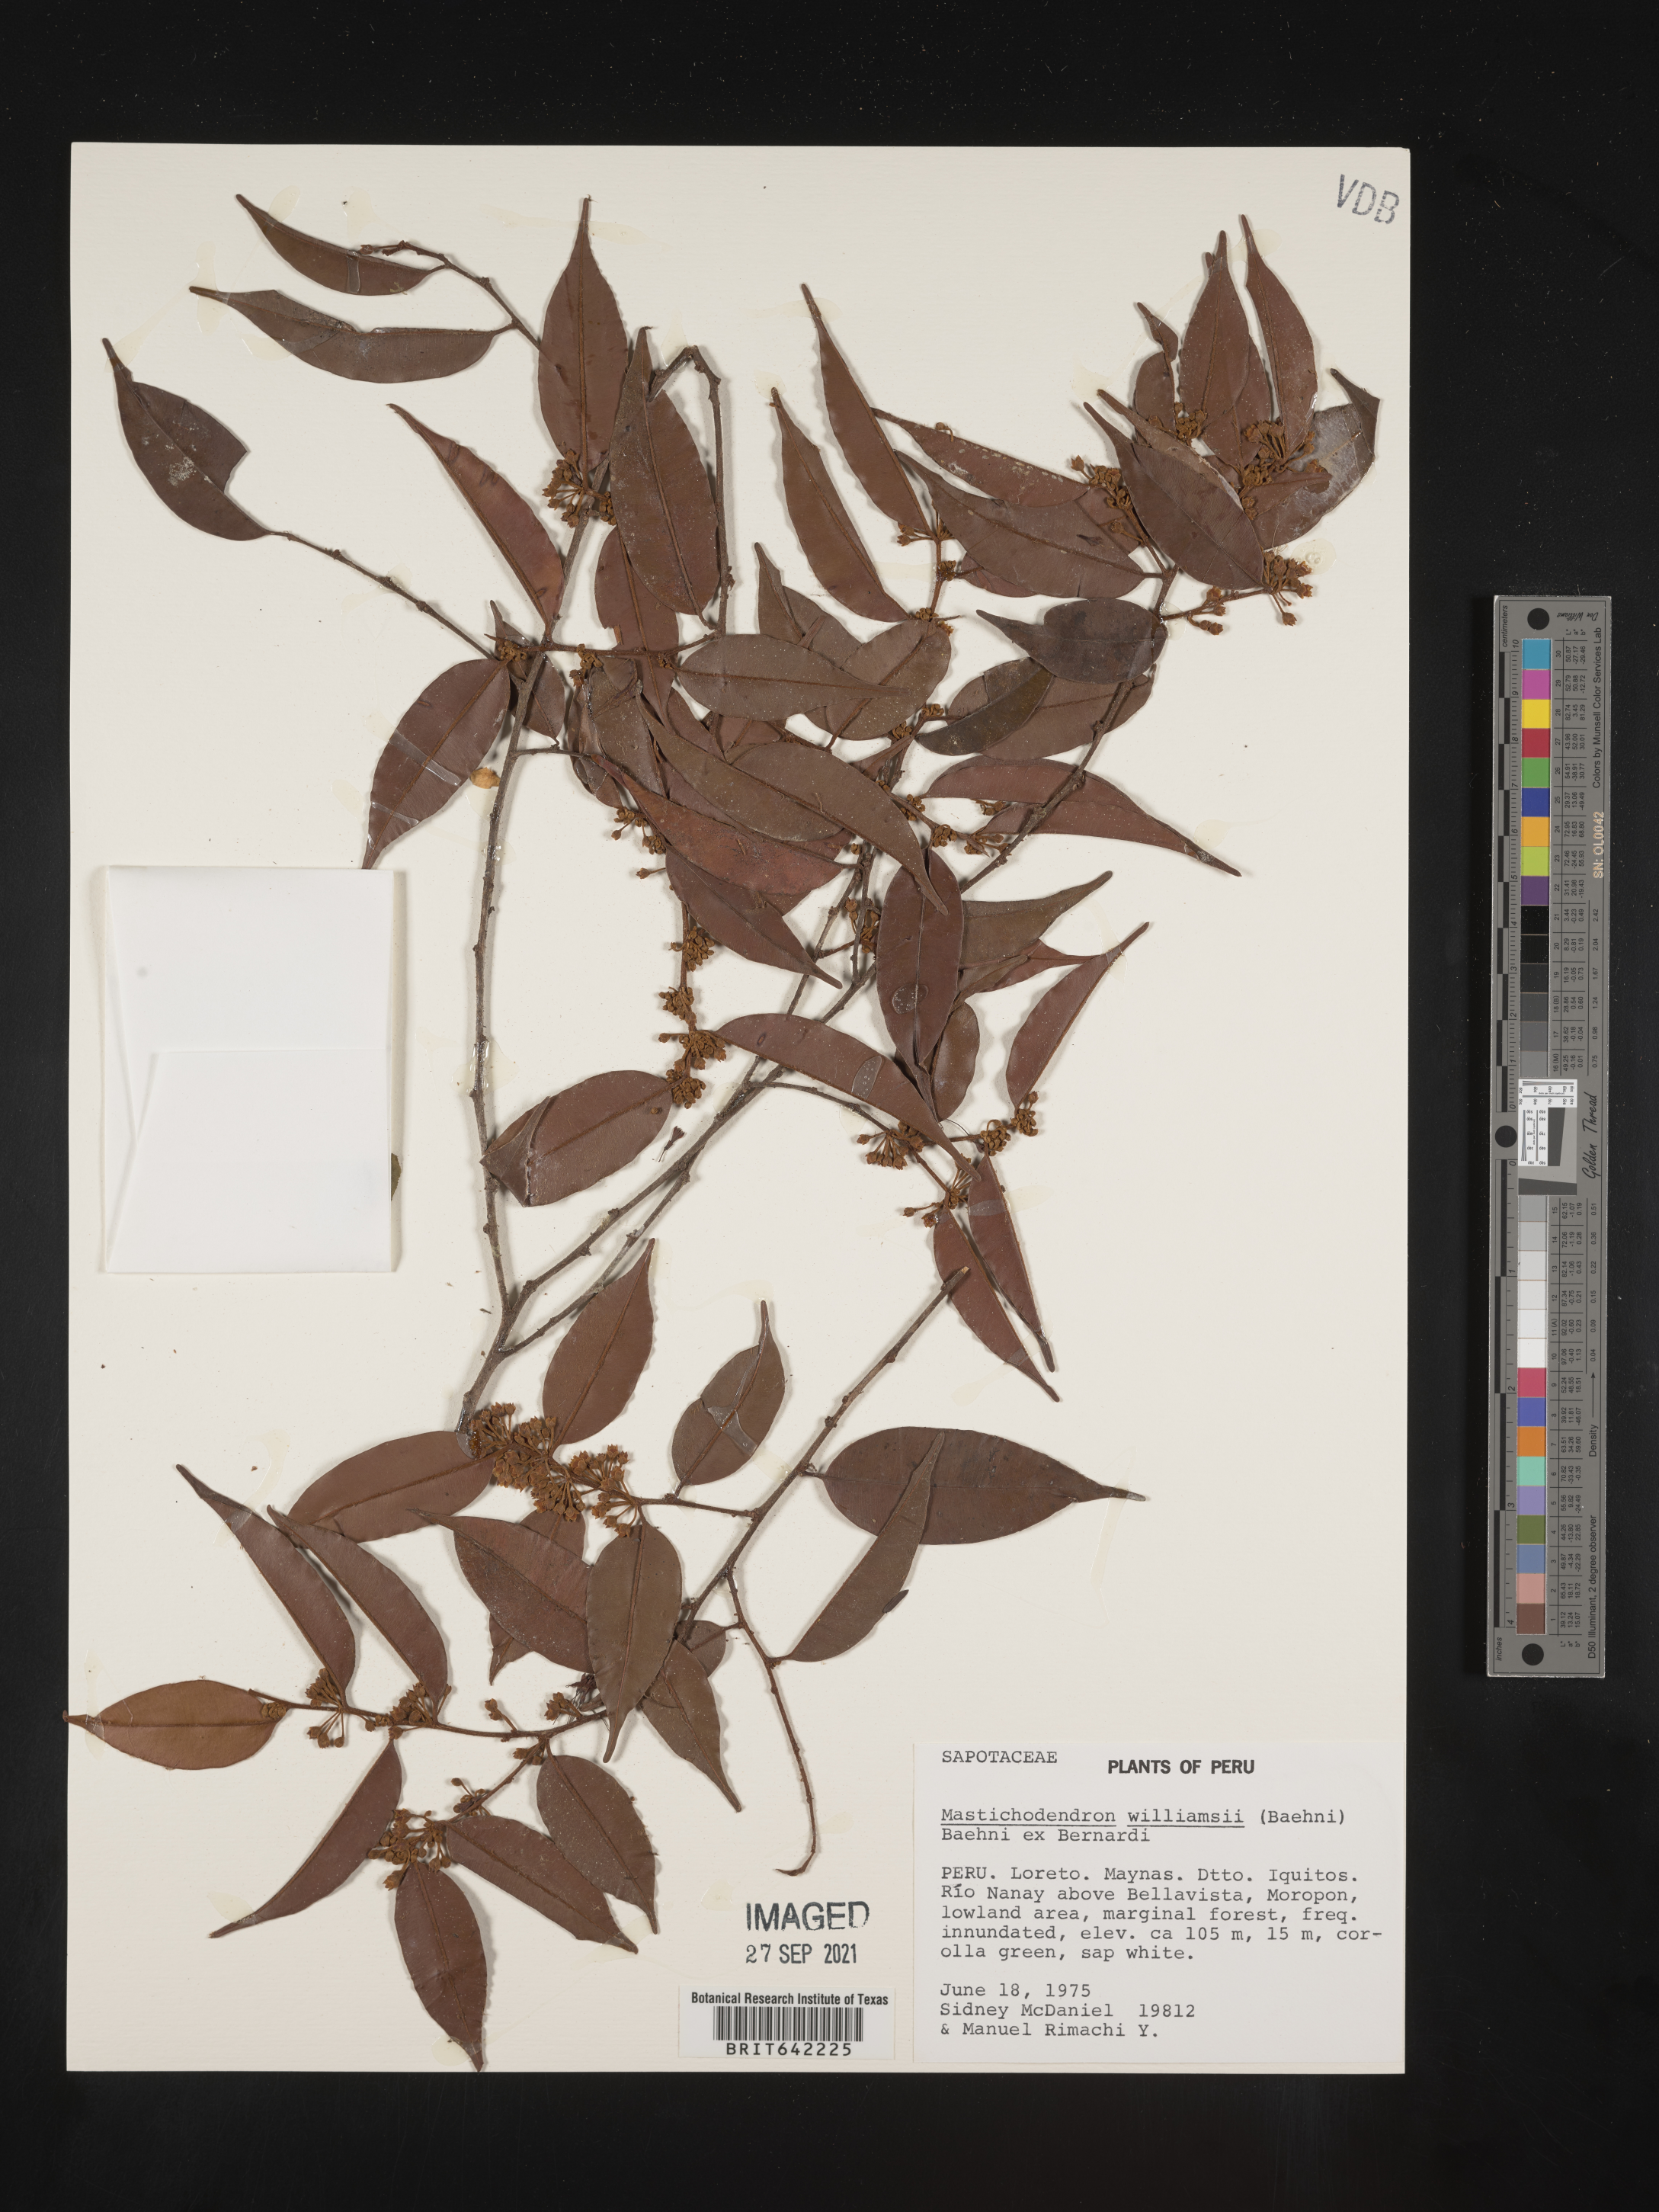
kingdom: Plantae
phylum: Tracheophyta
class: Magnoliopsida
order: Ericales
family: Sapotaceae
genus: Mastichodendron
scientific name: Mastichodendron
